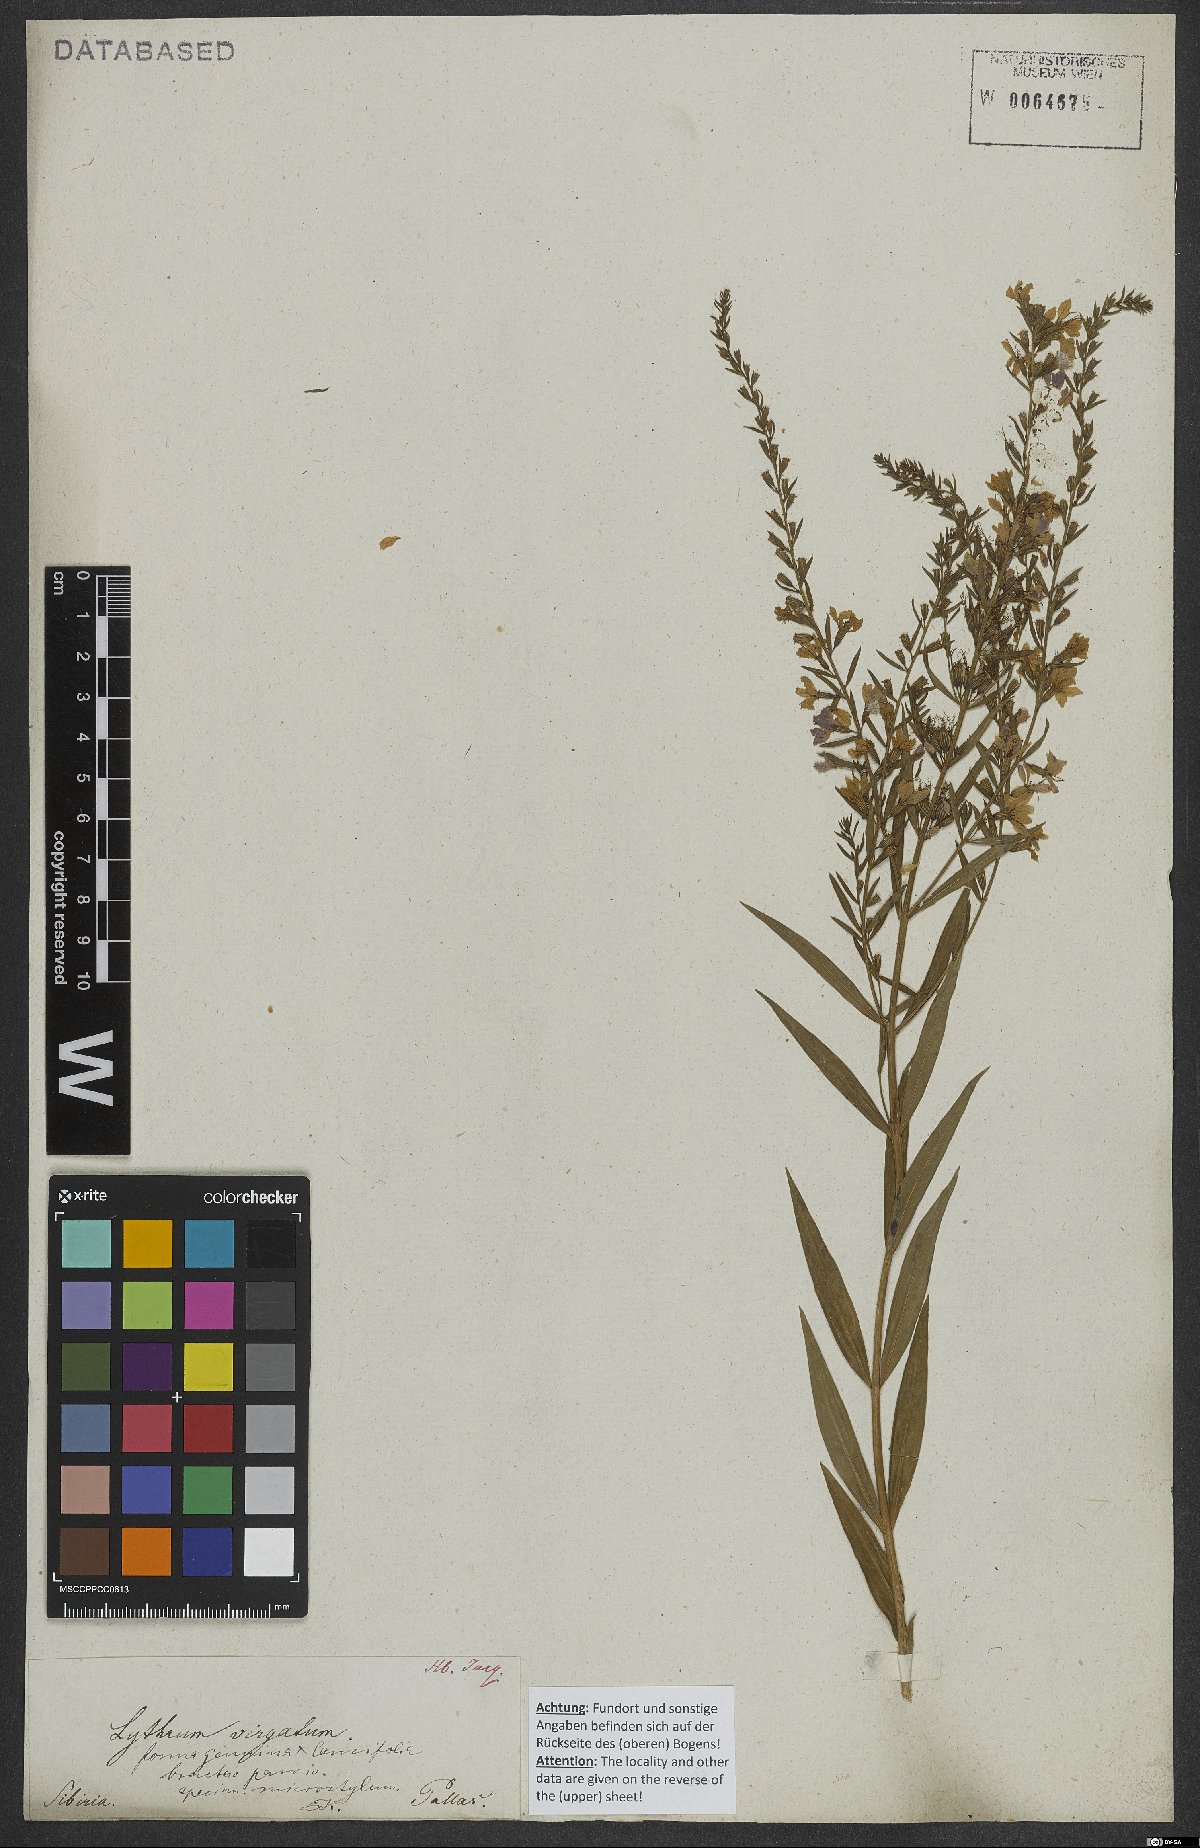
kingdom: Plantae
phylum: Tracheophyta
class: Magnoliopsida
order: Myrtales
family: Lythraceae
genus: Lythrum
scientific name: Lythrum virgatum
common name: European wand loosestrife
